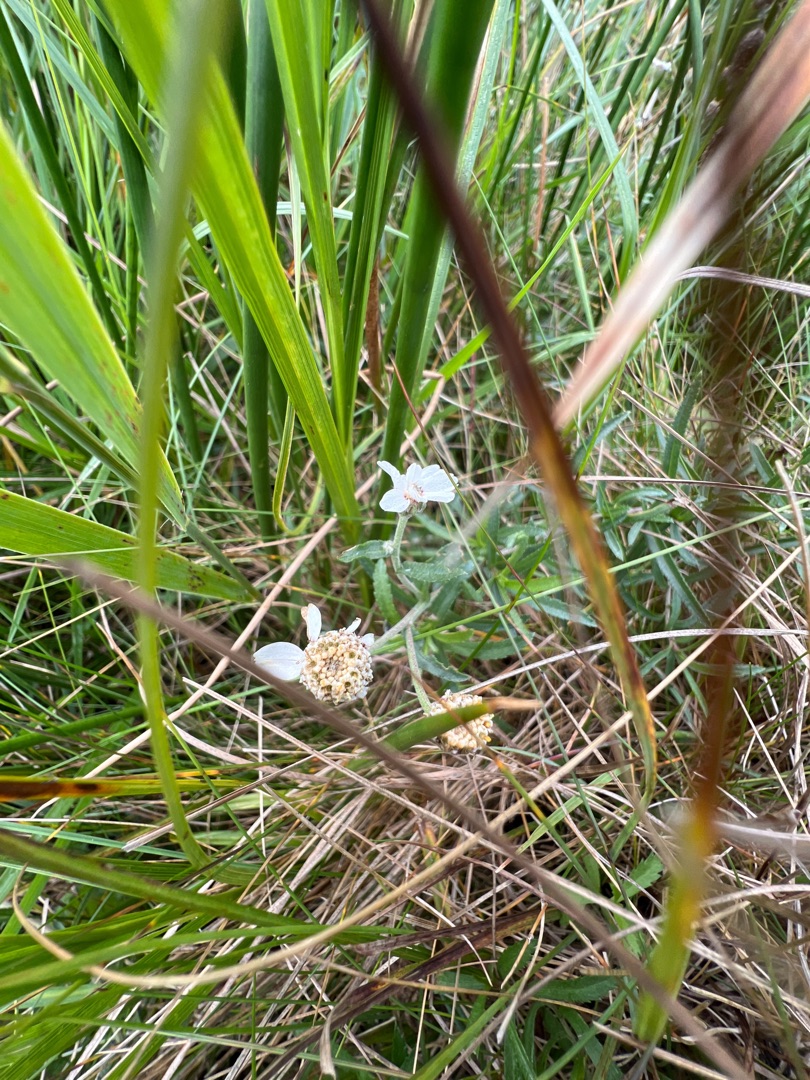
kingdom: Plantae
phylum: Tracheophyta
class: Magnoliopsida
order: Asterales
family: Asteraceae
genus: Achillea
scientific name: Achillea ptarmica
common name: Nyse-røllike
